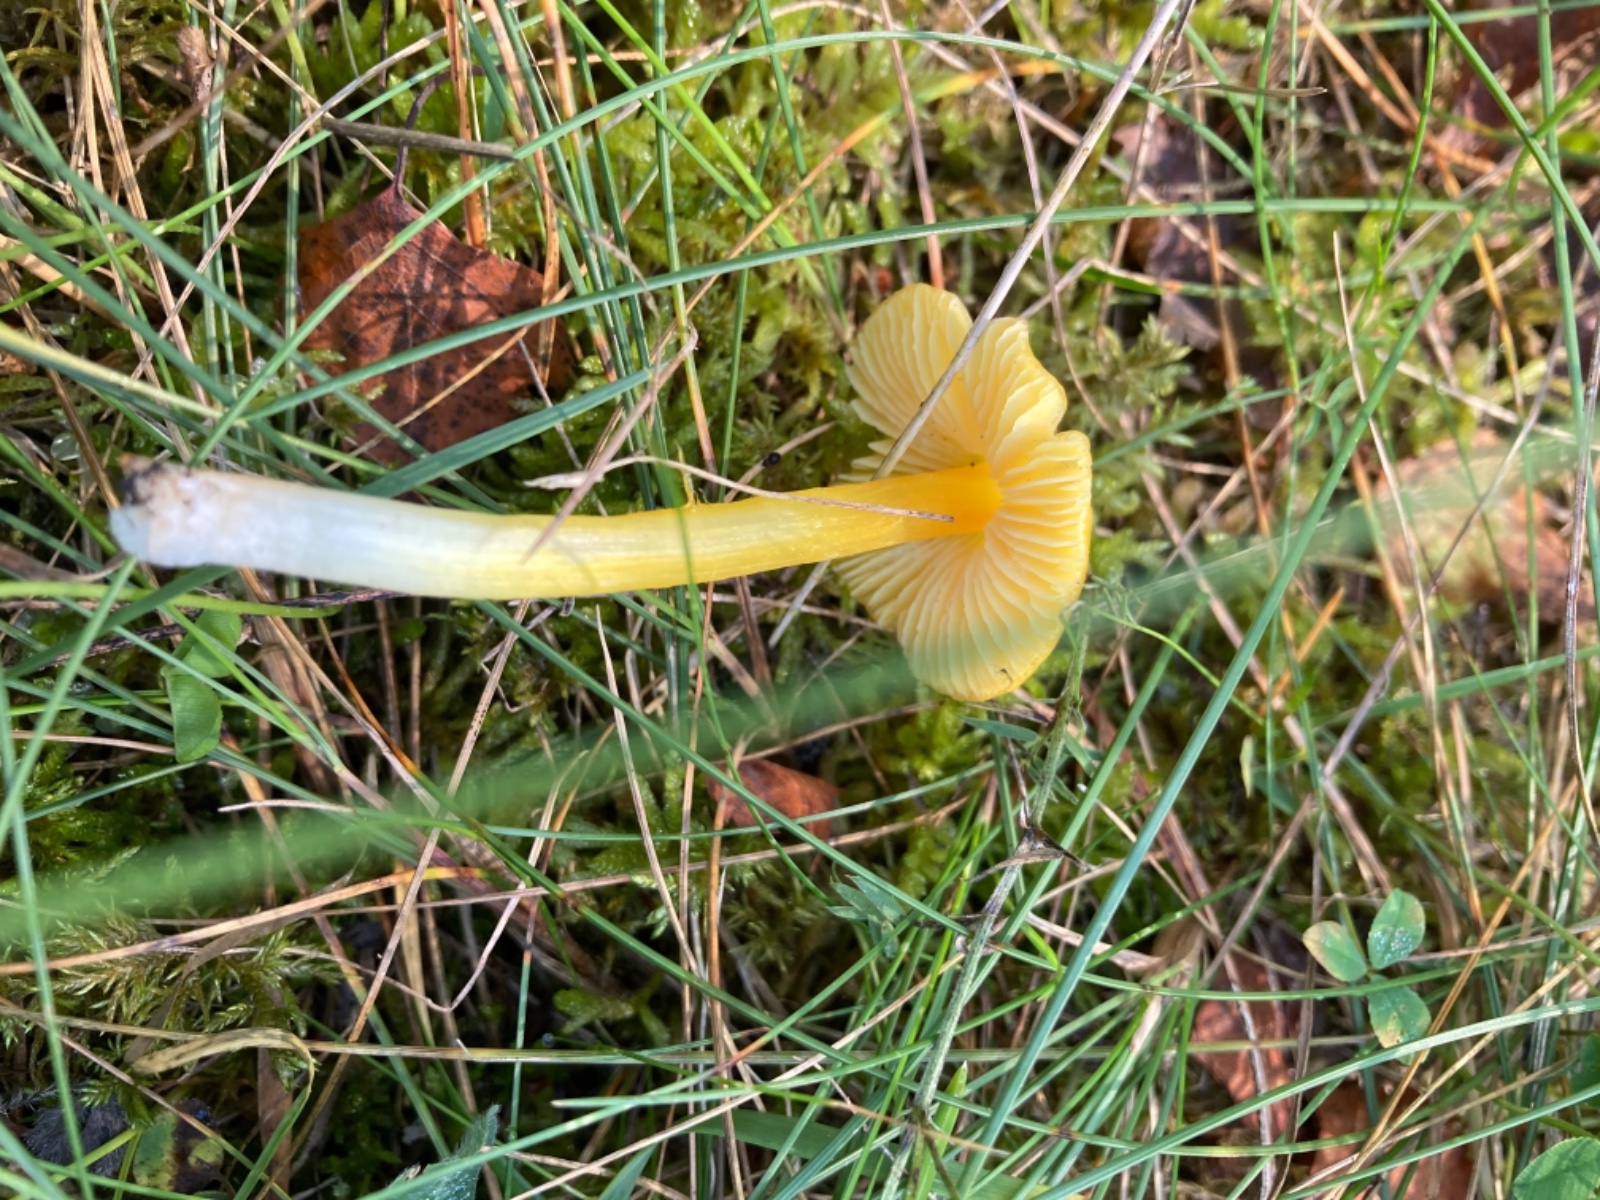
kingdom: Fungi
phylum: Basidiomycota
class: Agaricomycetes
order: Agaricales
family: Hygrophoraceae
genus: Hygrocybe
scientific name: Hygrocybe acutoconica
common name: spidspuklet vokshat
